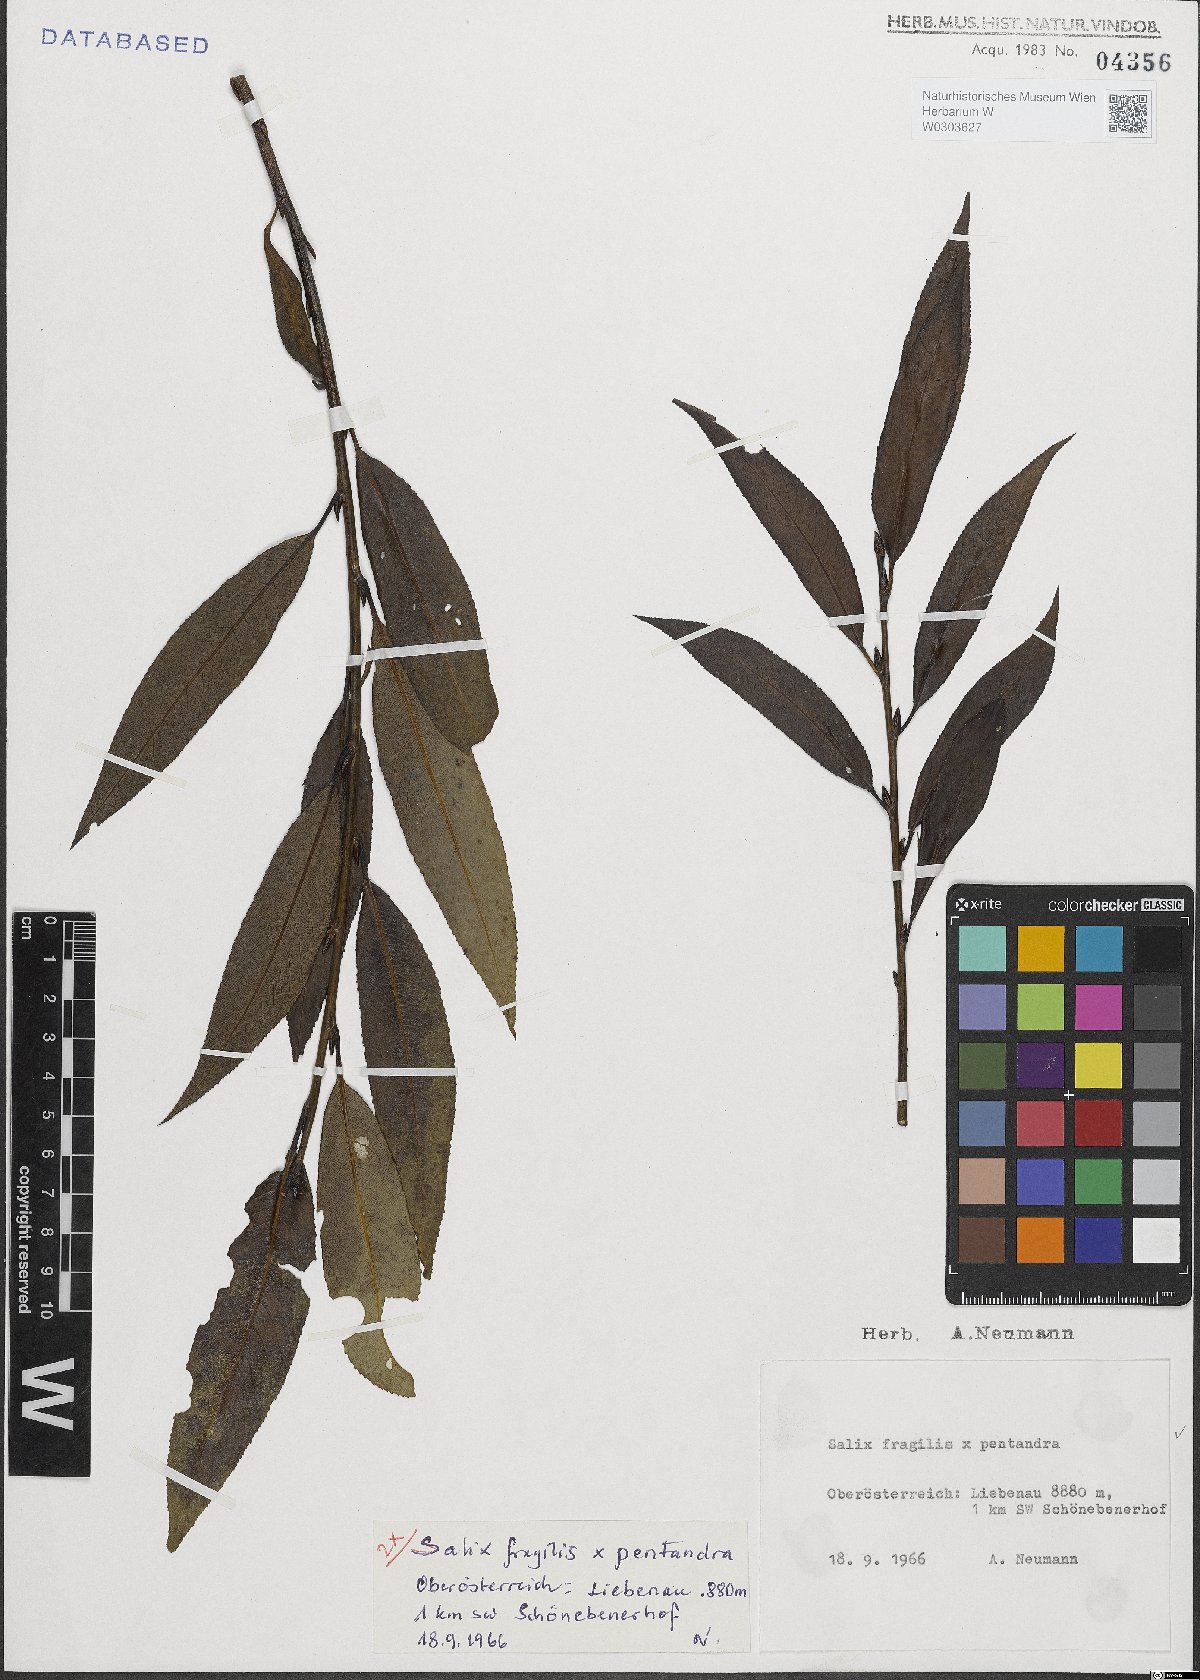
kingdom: Plantae
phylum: Tracheophyta
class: Magnoliopsida
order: Malpighiales
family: Salicaceae
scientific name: Salicaceae
